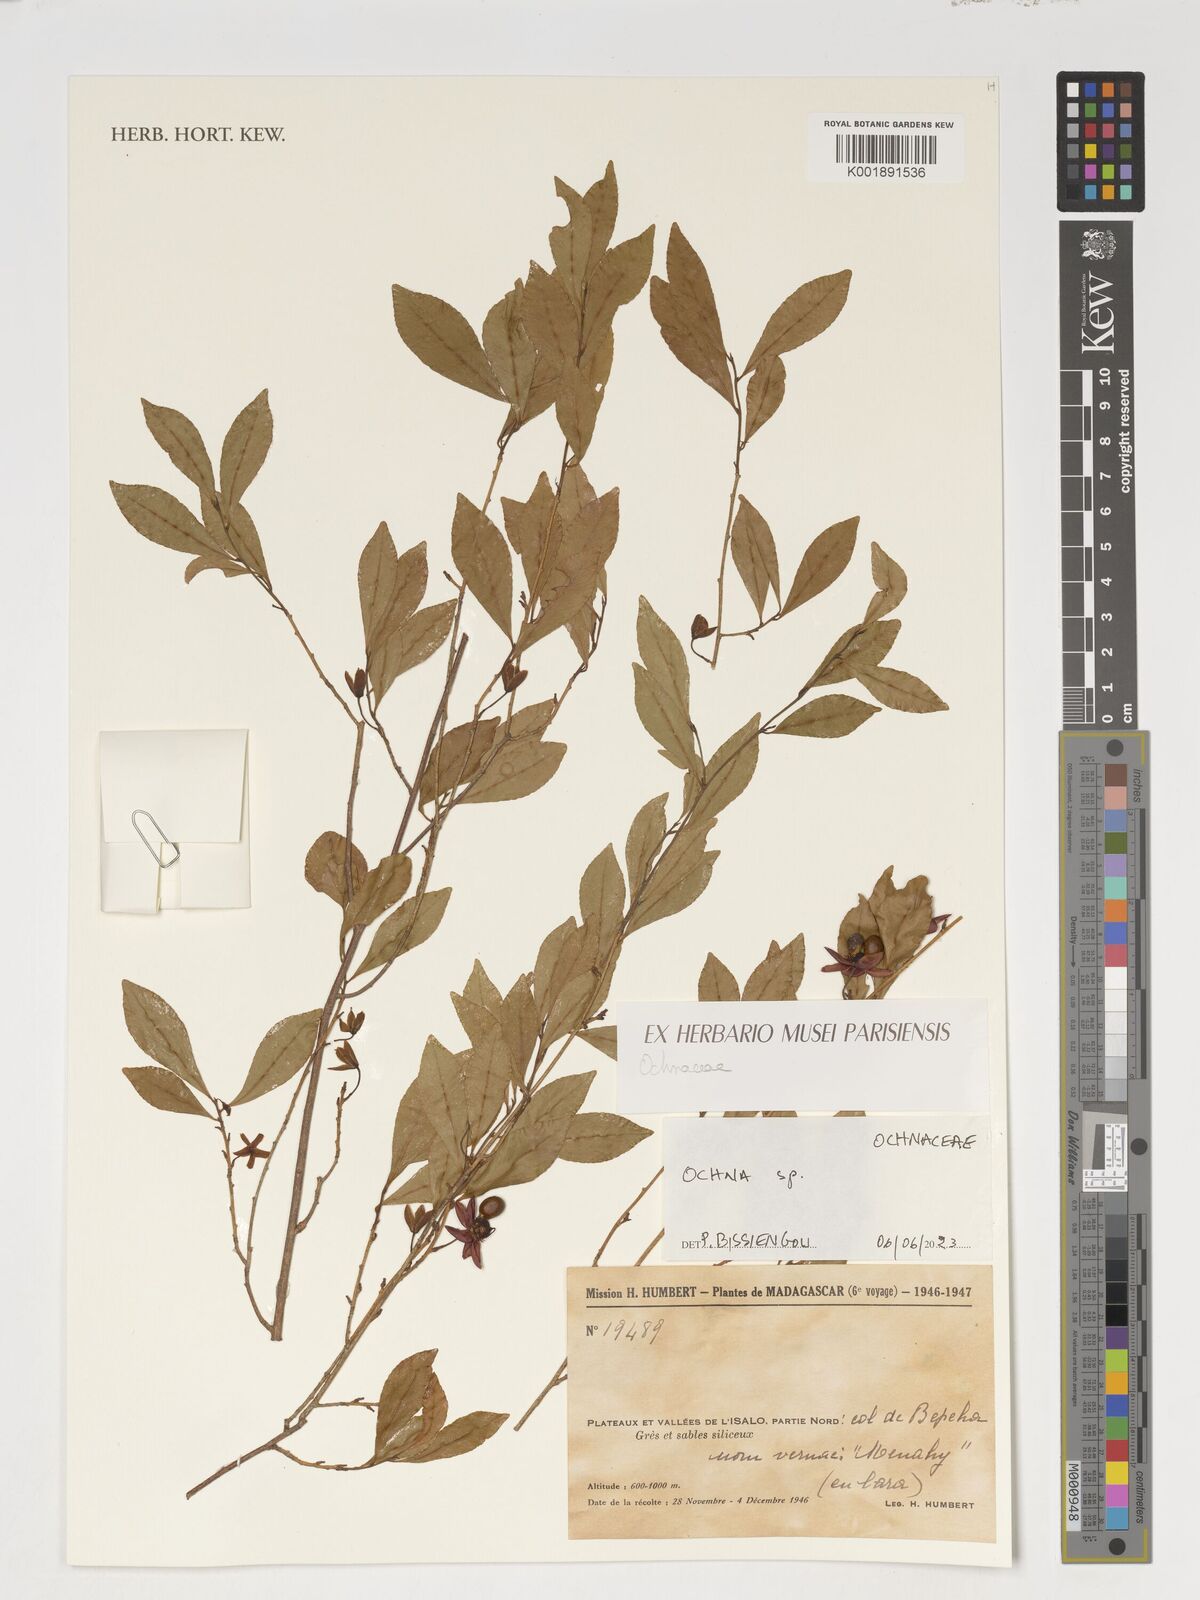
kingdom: Plantae
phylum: Tracheophyta
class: Magnoliopsida
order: Malpighiales
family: Ochnaceae
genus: Ochna
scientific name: Ochna
